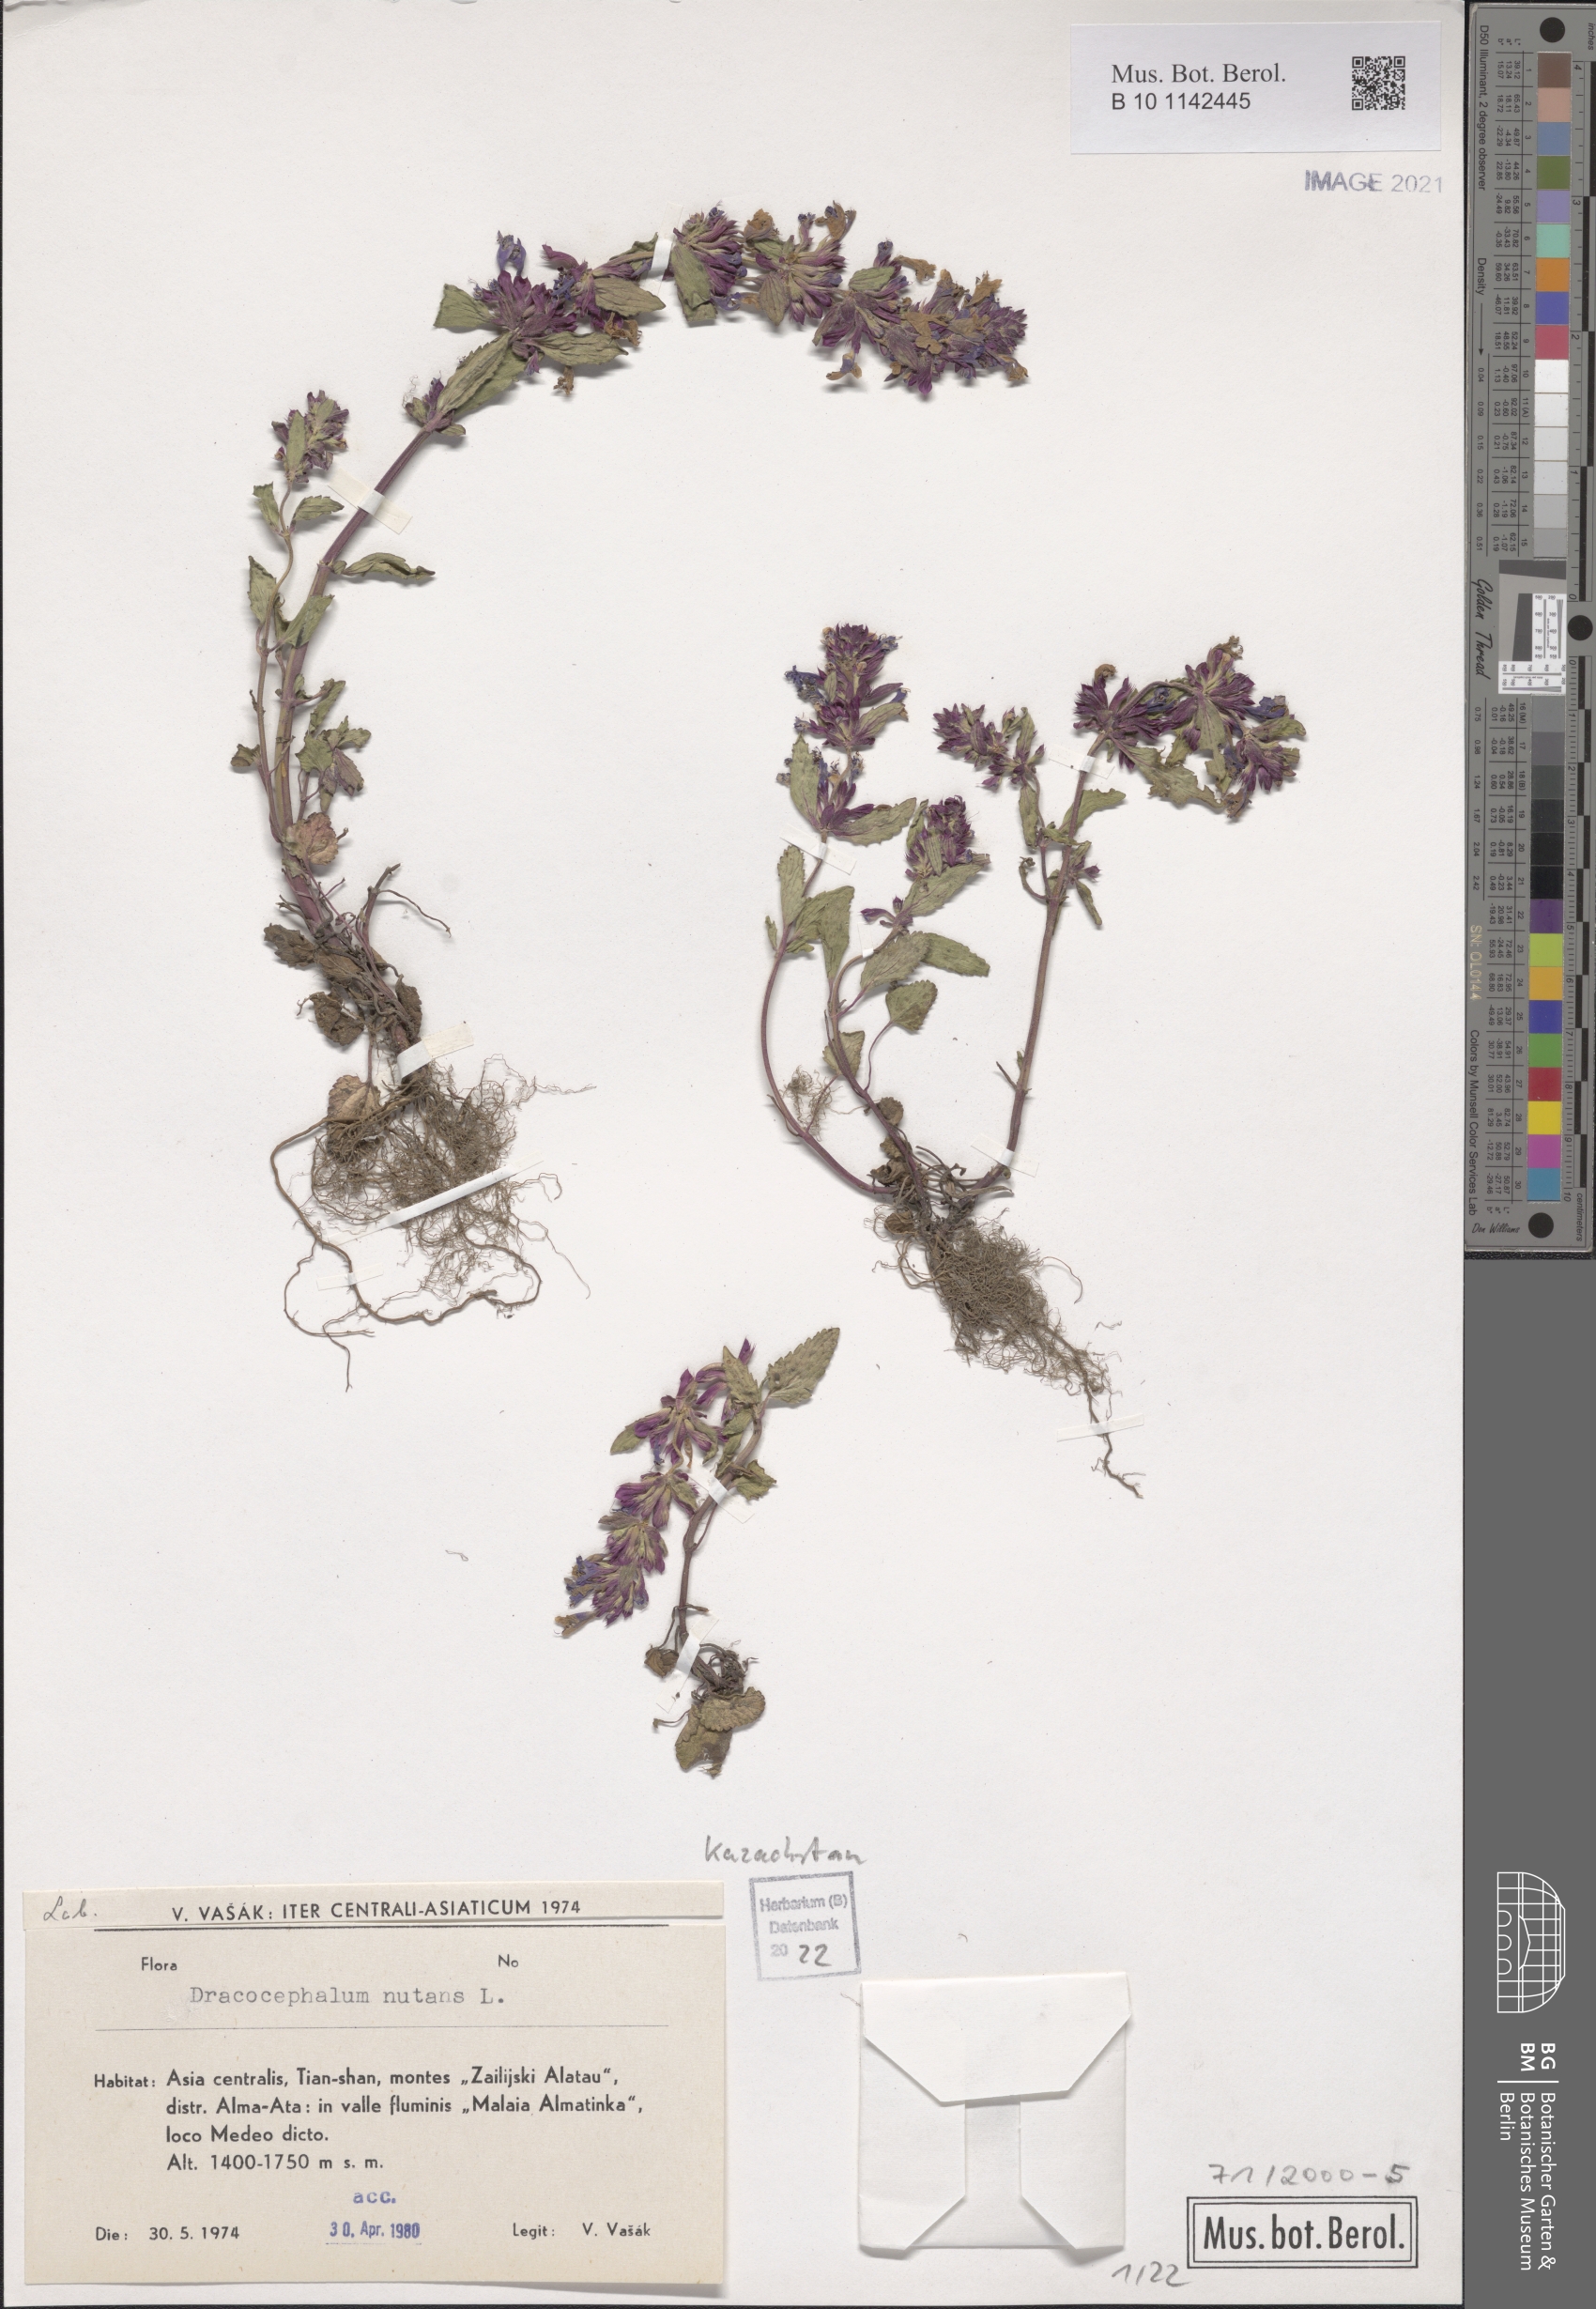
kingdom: Plantae
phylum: Tracheophyta
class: Magnoliopsida
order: Lamiales
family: Lamiaceae
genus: Dracocephalum
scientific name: Dracocephalum nutans
